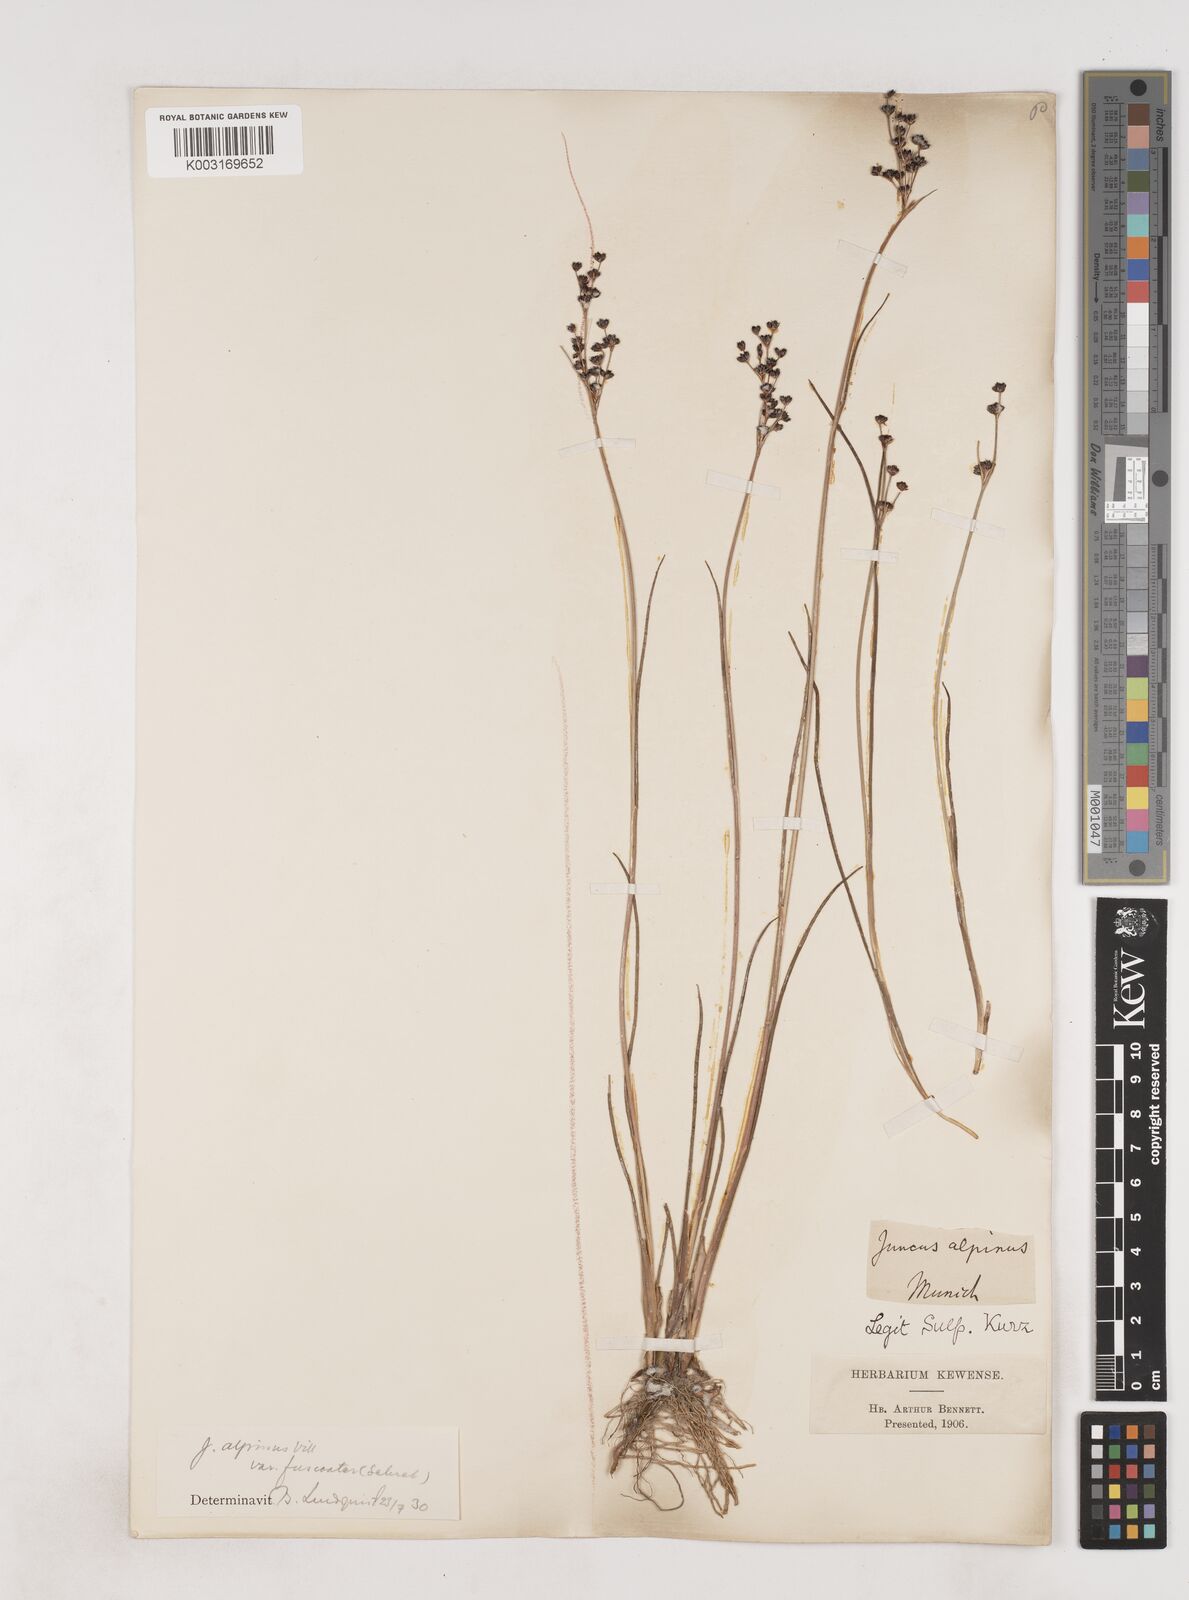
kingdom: Plantae
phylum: Tracheophyta
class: Liliopsida
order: Poales
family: Juncaceae
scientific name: Juncaceae
